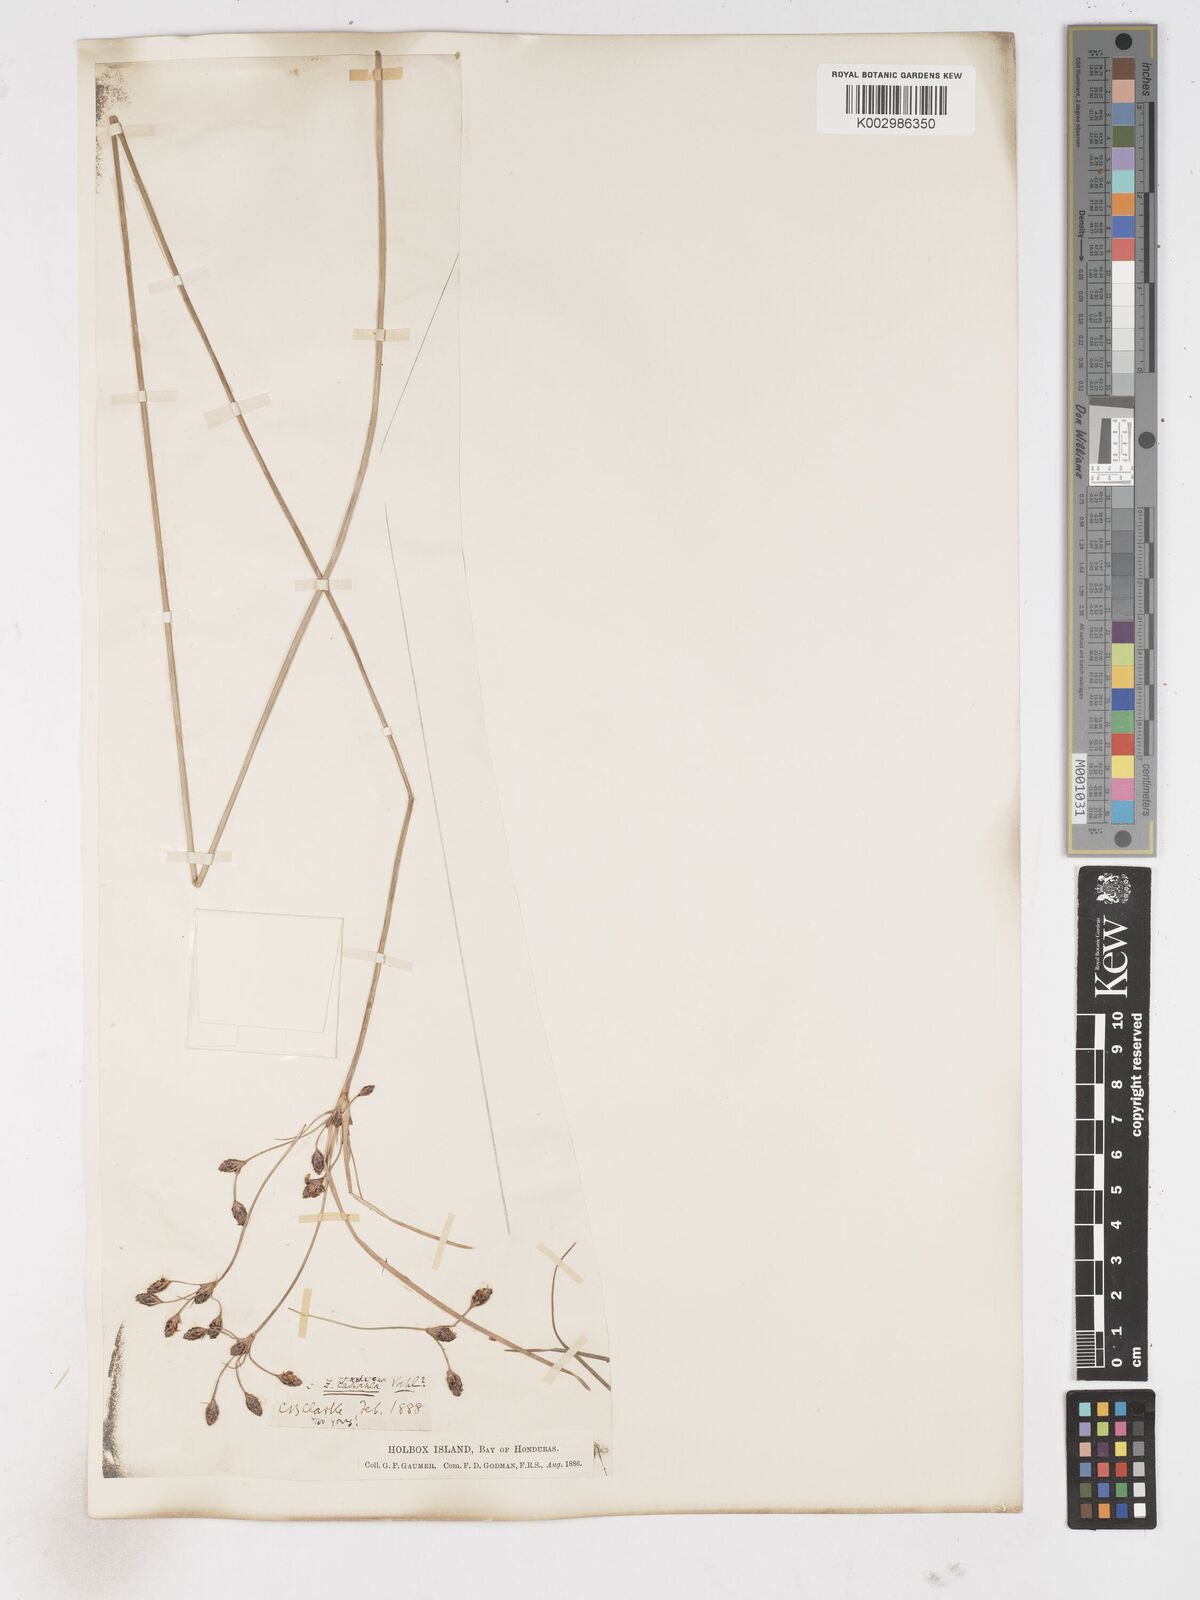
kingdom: Plantae
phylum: Tracheophyta
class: Liliopsida
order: Poales
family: Cyperaceae
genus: Fimbristylis
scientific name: Fimbristylis
